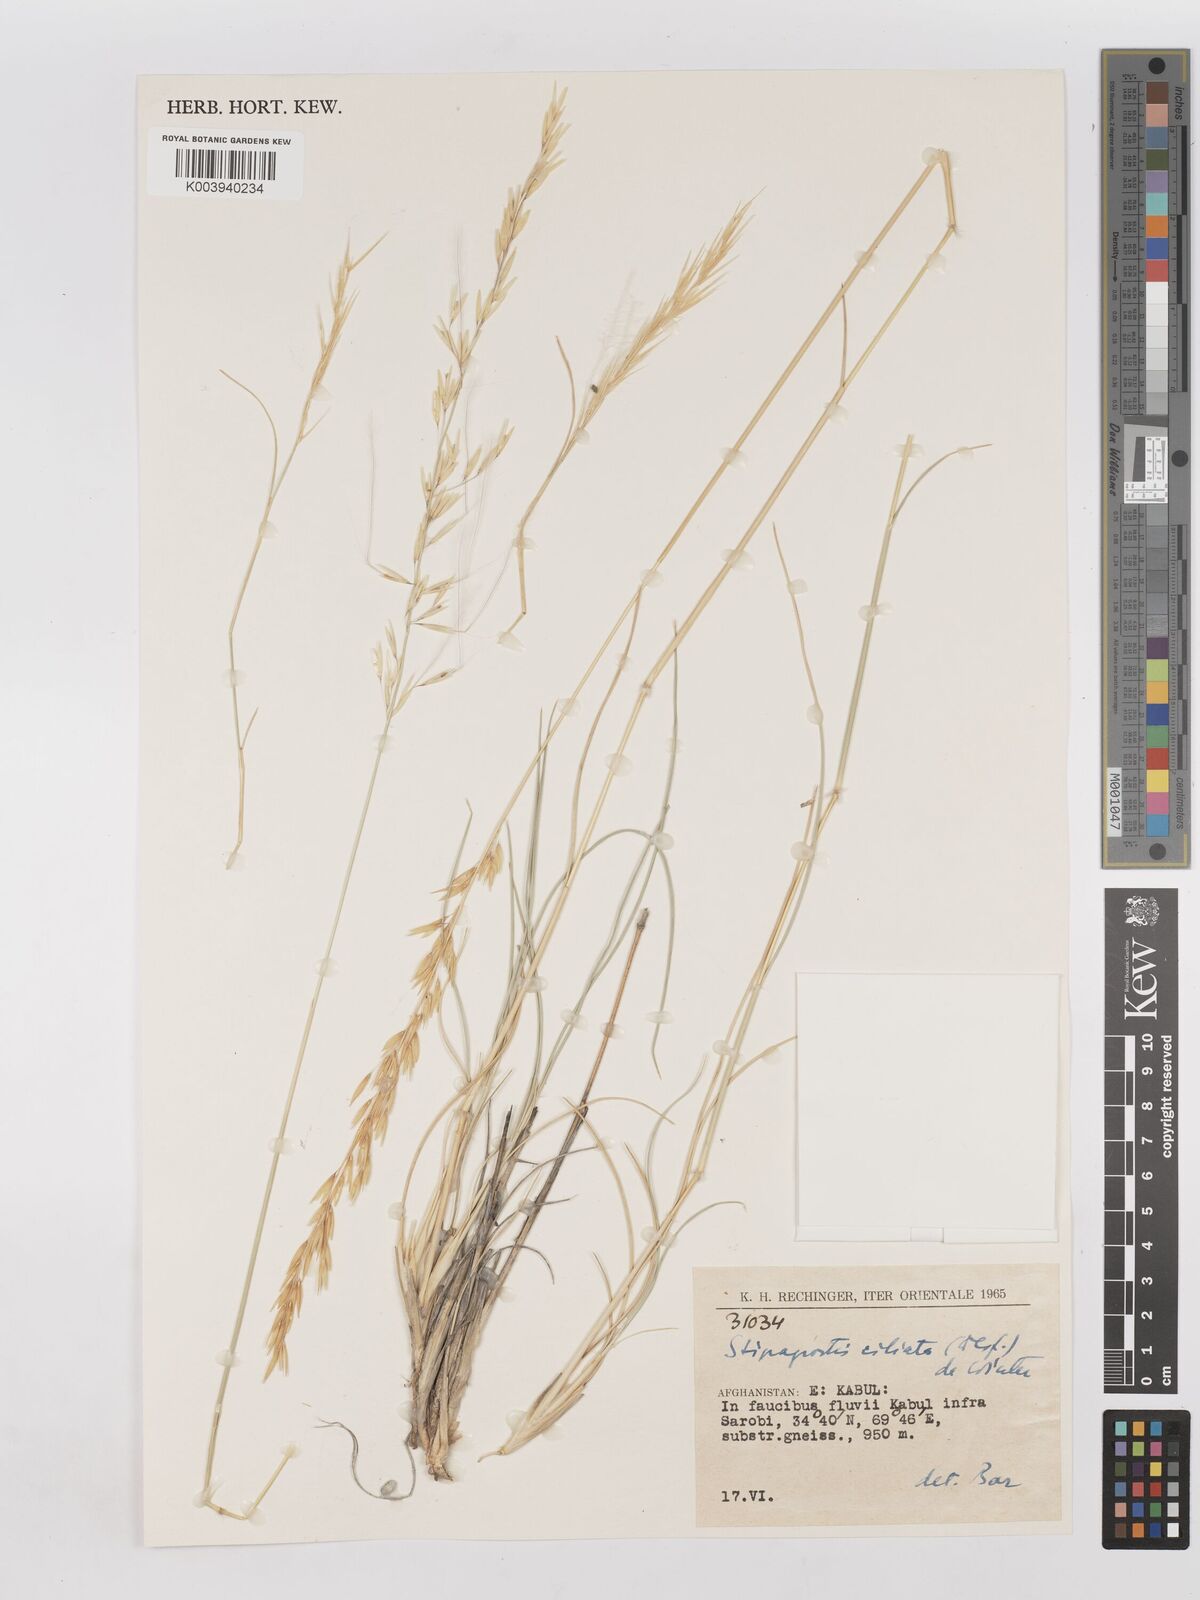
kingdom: Plantae
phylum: Tracheophyta
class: Liliopsida
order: Poales
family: Poaceae
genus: Stipagrostis
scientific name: Stipagrostis ciliata
